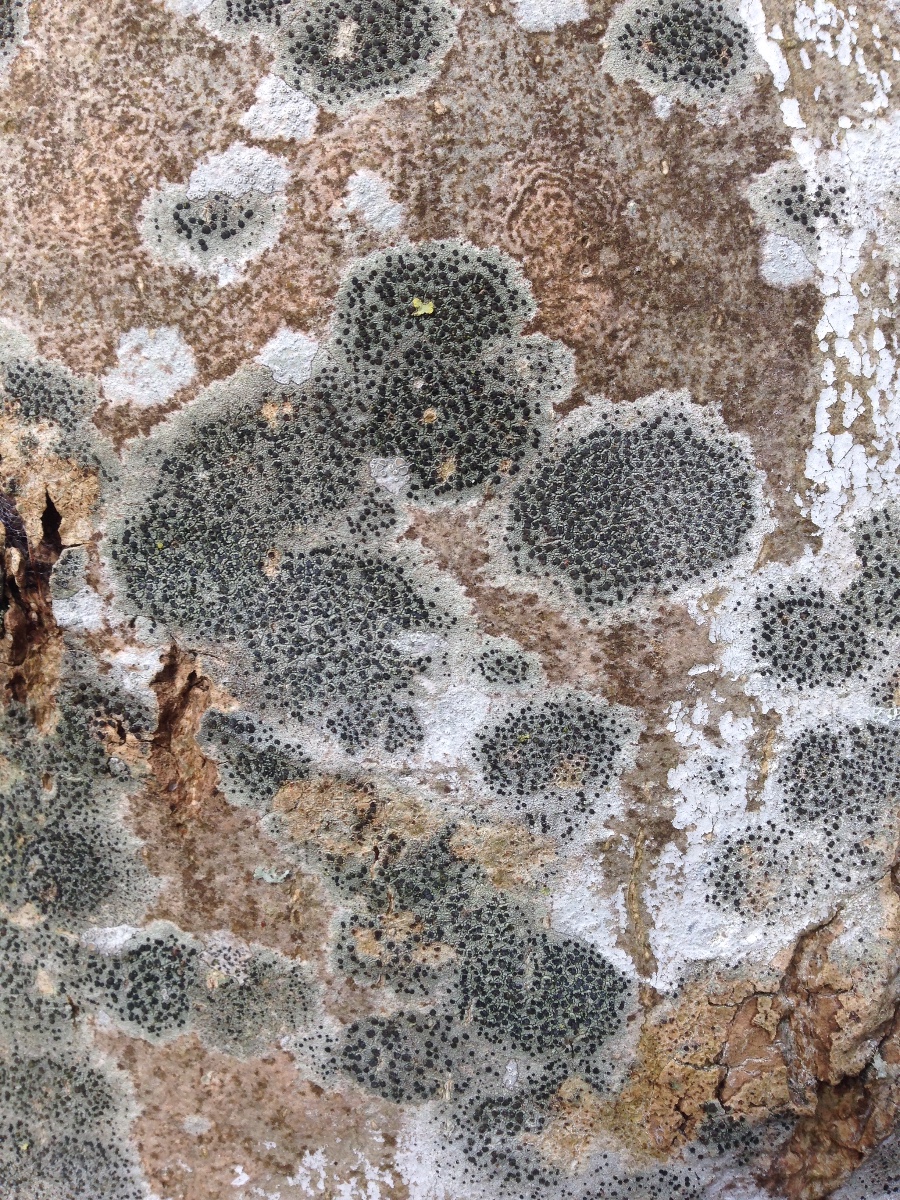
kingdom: Fungi
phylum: Ascomycota
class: Lecanoromycetes
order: Lecanorales
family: Lecanoraceae
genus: Lecidella
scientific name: Lecidella elaeochroma
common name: grågrøn skivelav
